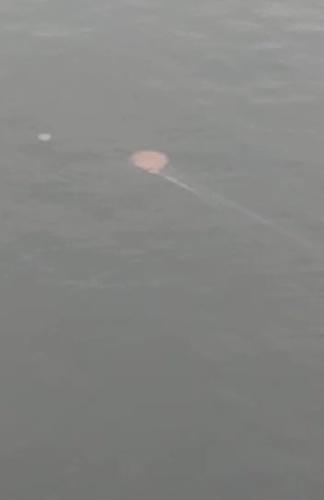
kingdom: Animalia
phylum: Cnidaria
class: Scyphozoa
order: Semaeostomeae
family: Cyaneidae
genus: Cyanea
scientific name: Cyanea nozakii
